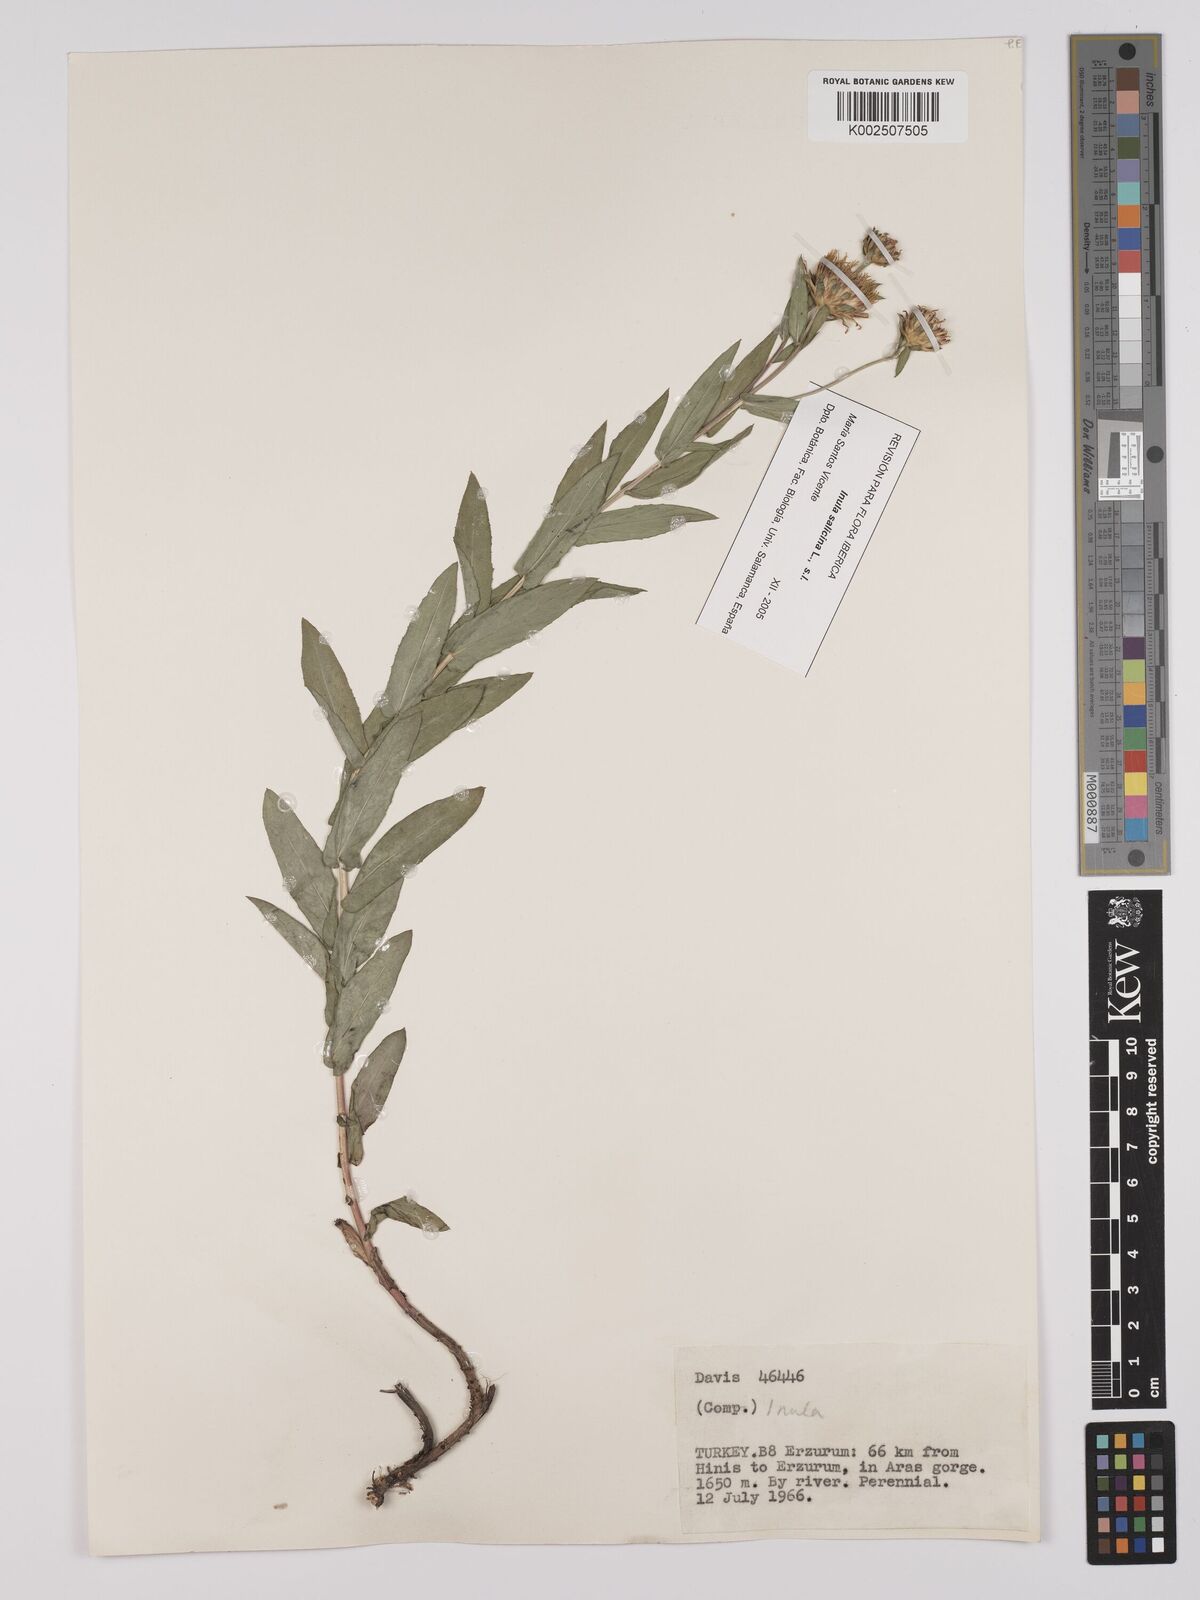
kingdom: Plantae
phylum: Tracheophyta
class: Magnoliopsida
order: Asterales
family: Asteraceae
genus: Pentanema
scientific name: Pentanema salicinum
